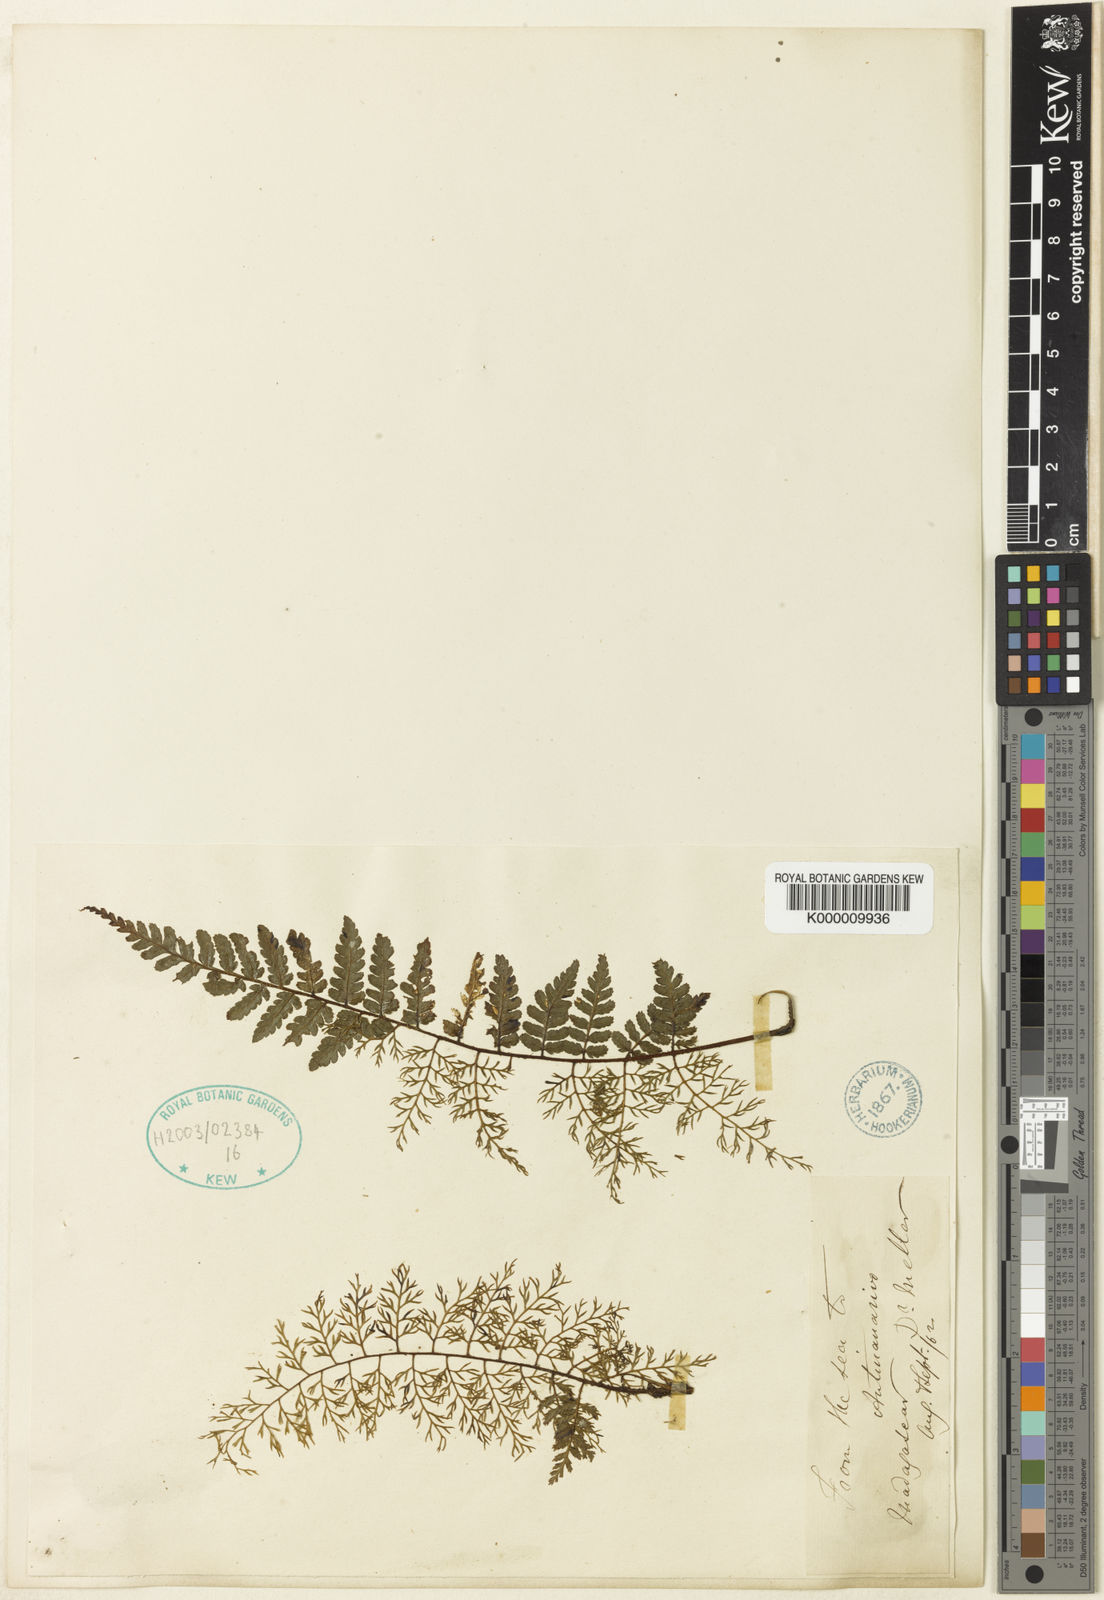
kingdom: Plantae
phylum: Tracheophyta
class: Polypodiopsida
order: Cyatheales
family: Cyatheaceae
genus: Alsophila
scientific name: Alsophila melleri
